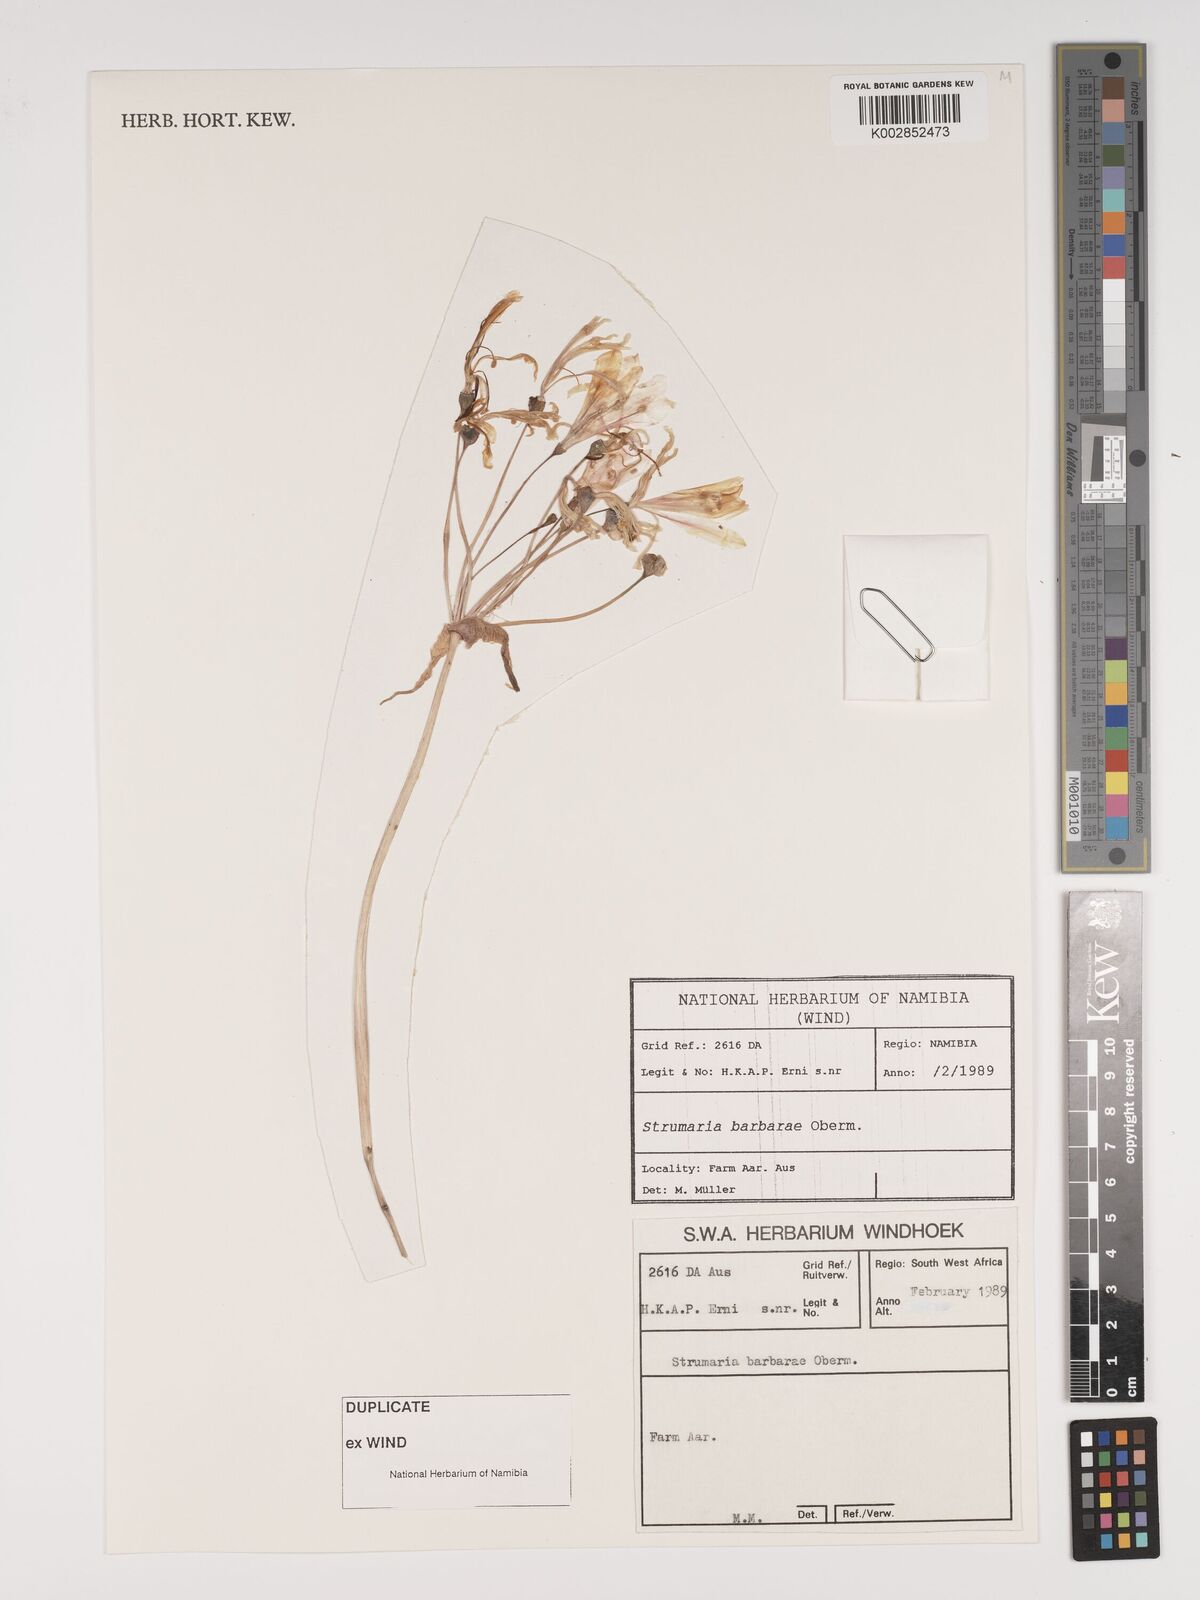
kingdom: Plantae
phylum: Tracheophyta
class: Liliopsida
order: Asparagales
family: Amaryllidaceae
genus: Strumaria
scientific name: Strumaria barbarae
